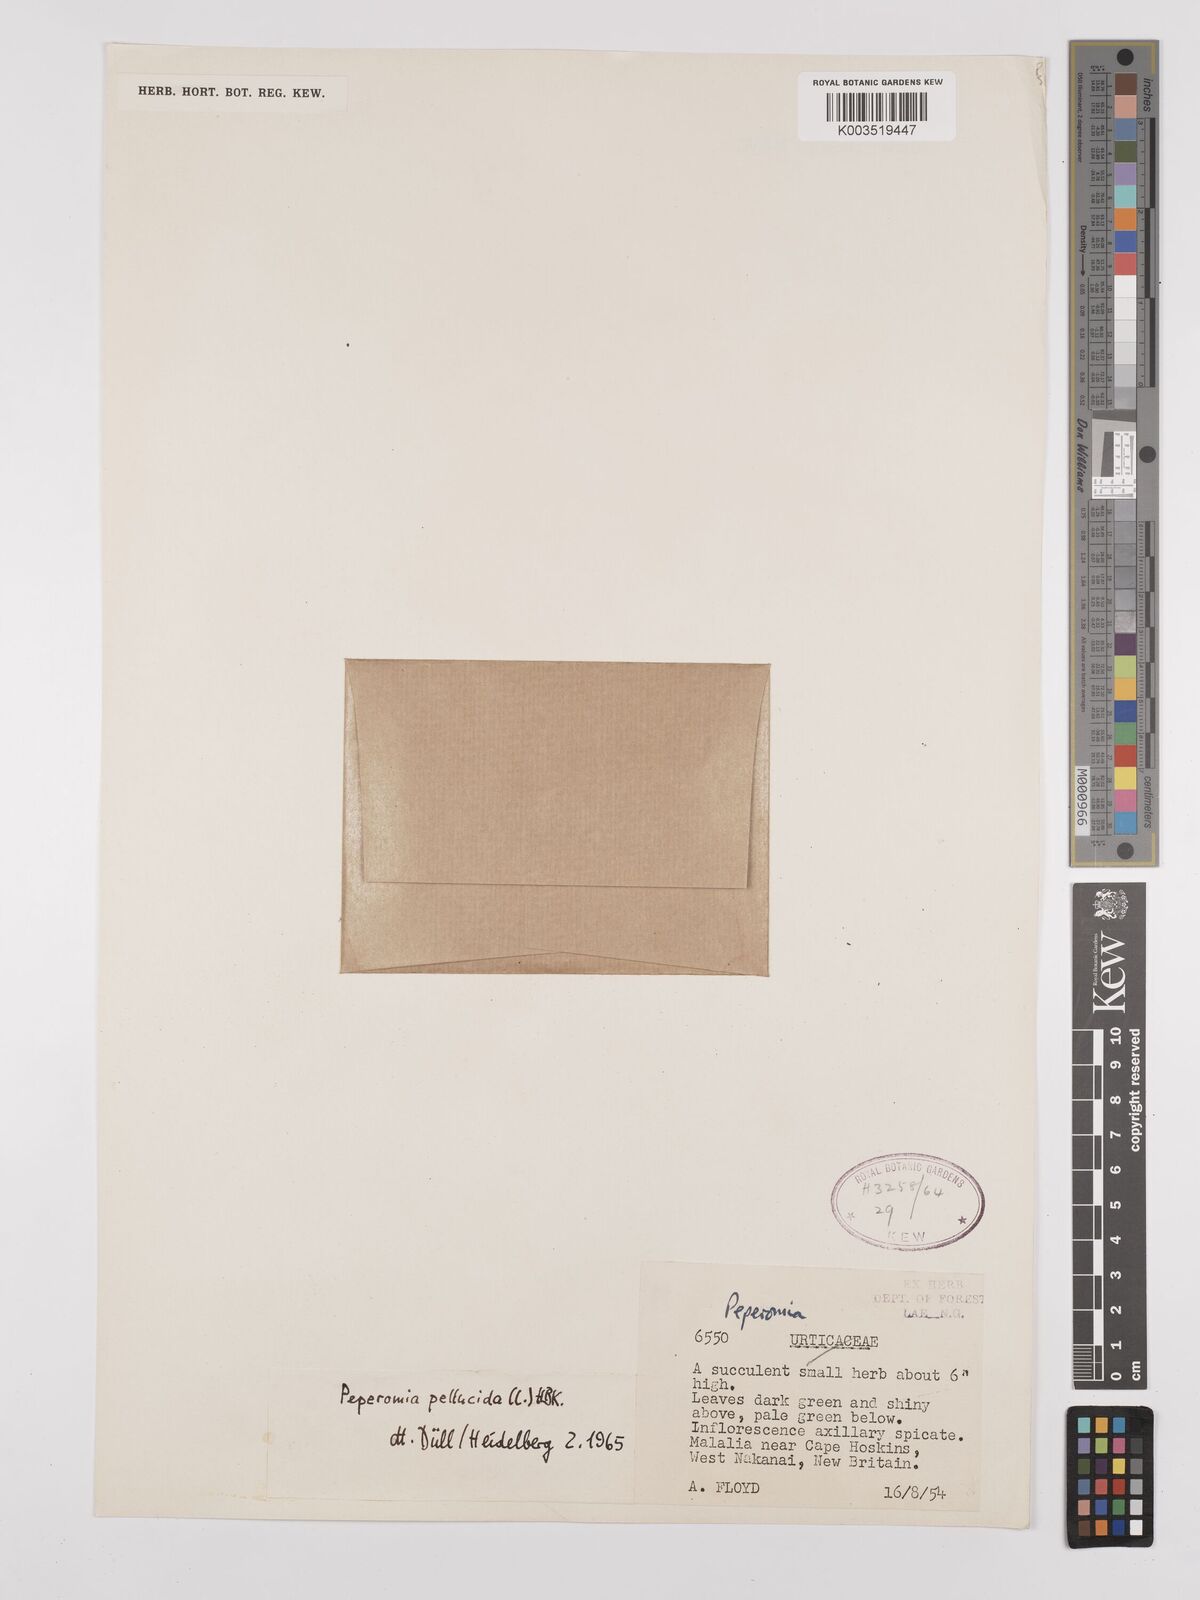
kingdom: Plantae
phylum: Tracheophyta
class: Magnoliopsida
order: Piperales
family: Piperaceae
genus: Peperomia
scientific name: Peperomia pellucida
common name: Man to man
